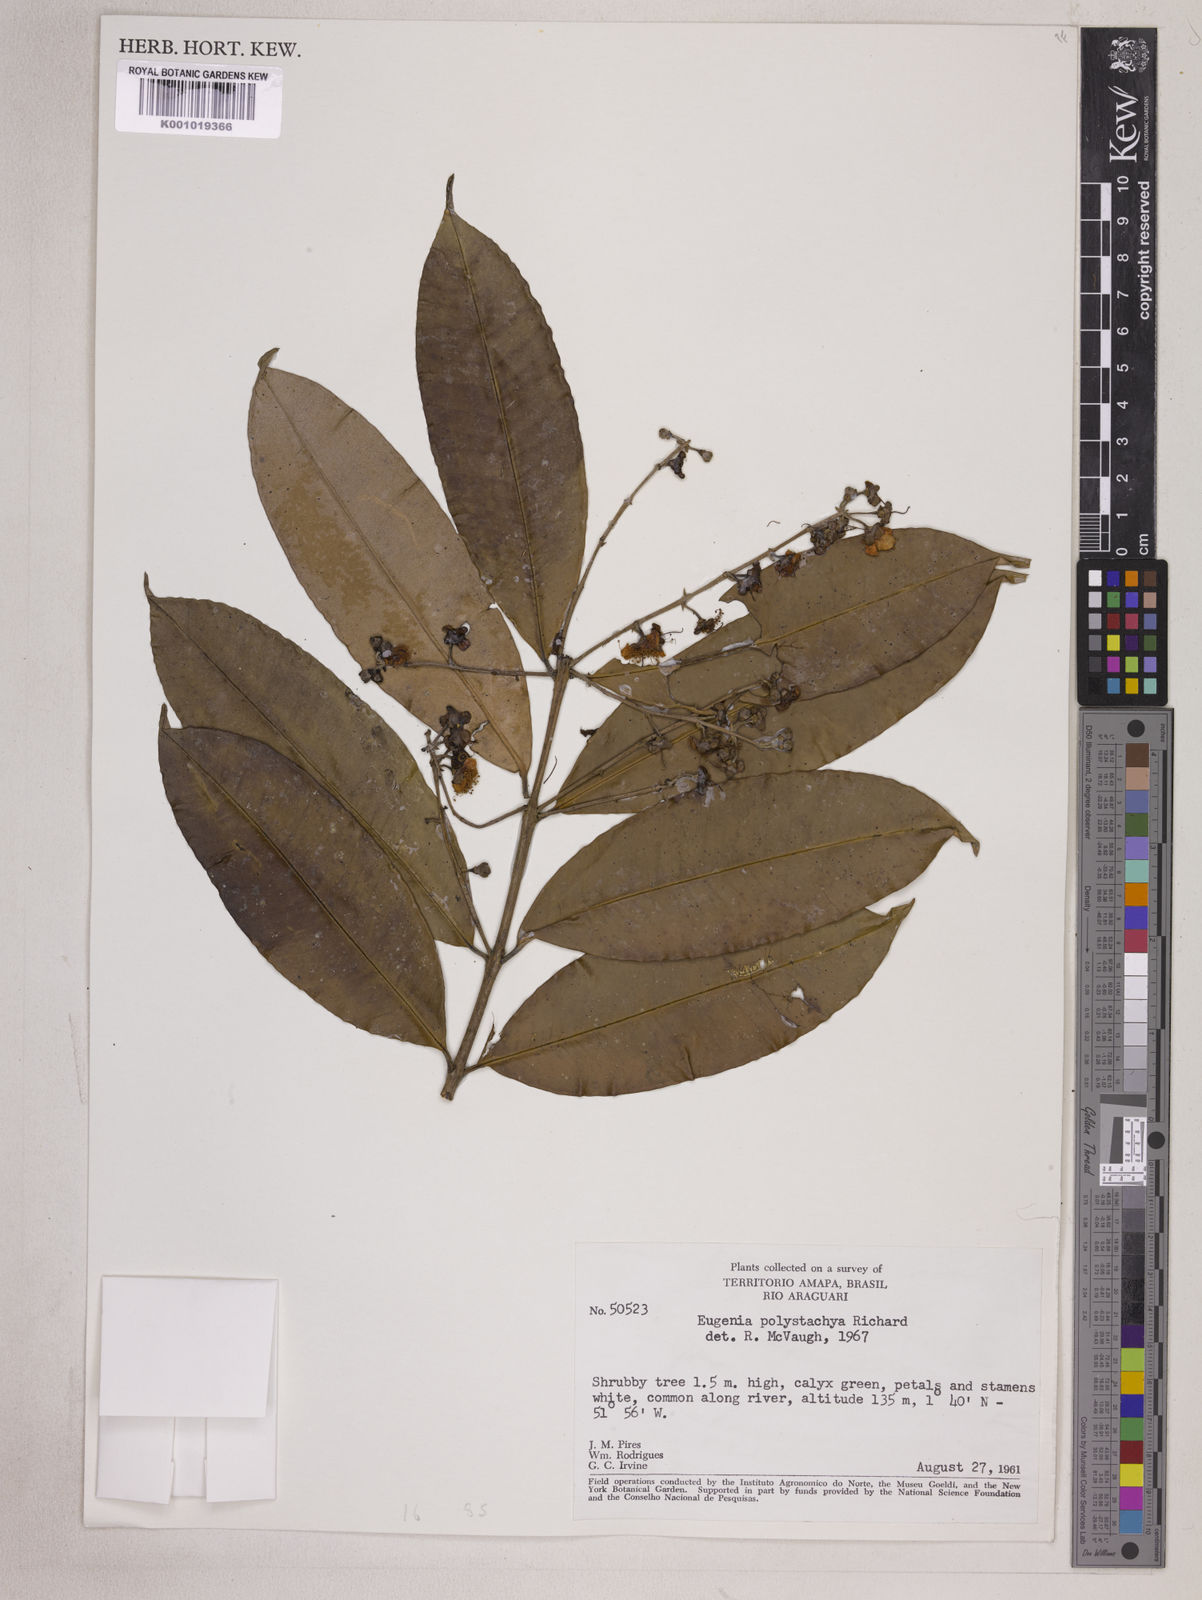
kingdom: Plantae
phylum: Tracheophyta
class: Magnoliopsida
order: Myrtales
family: Myrtaceae
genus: Eugenia
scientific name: Eugenia polystachya
